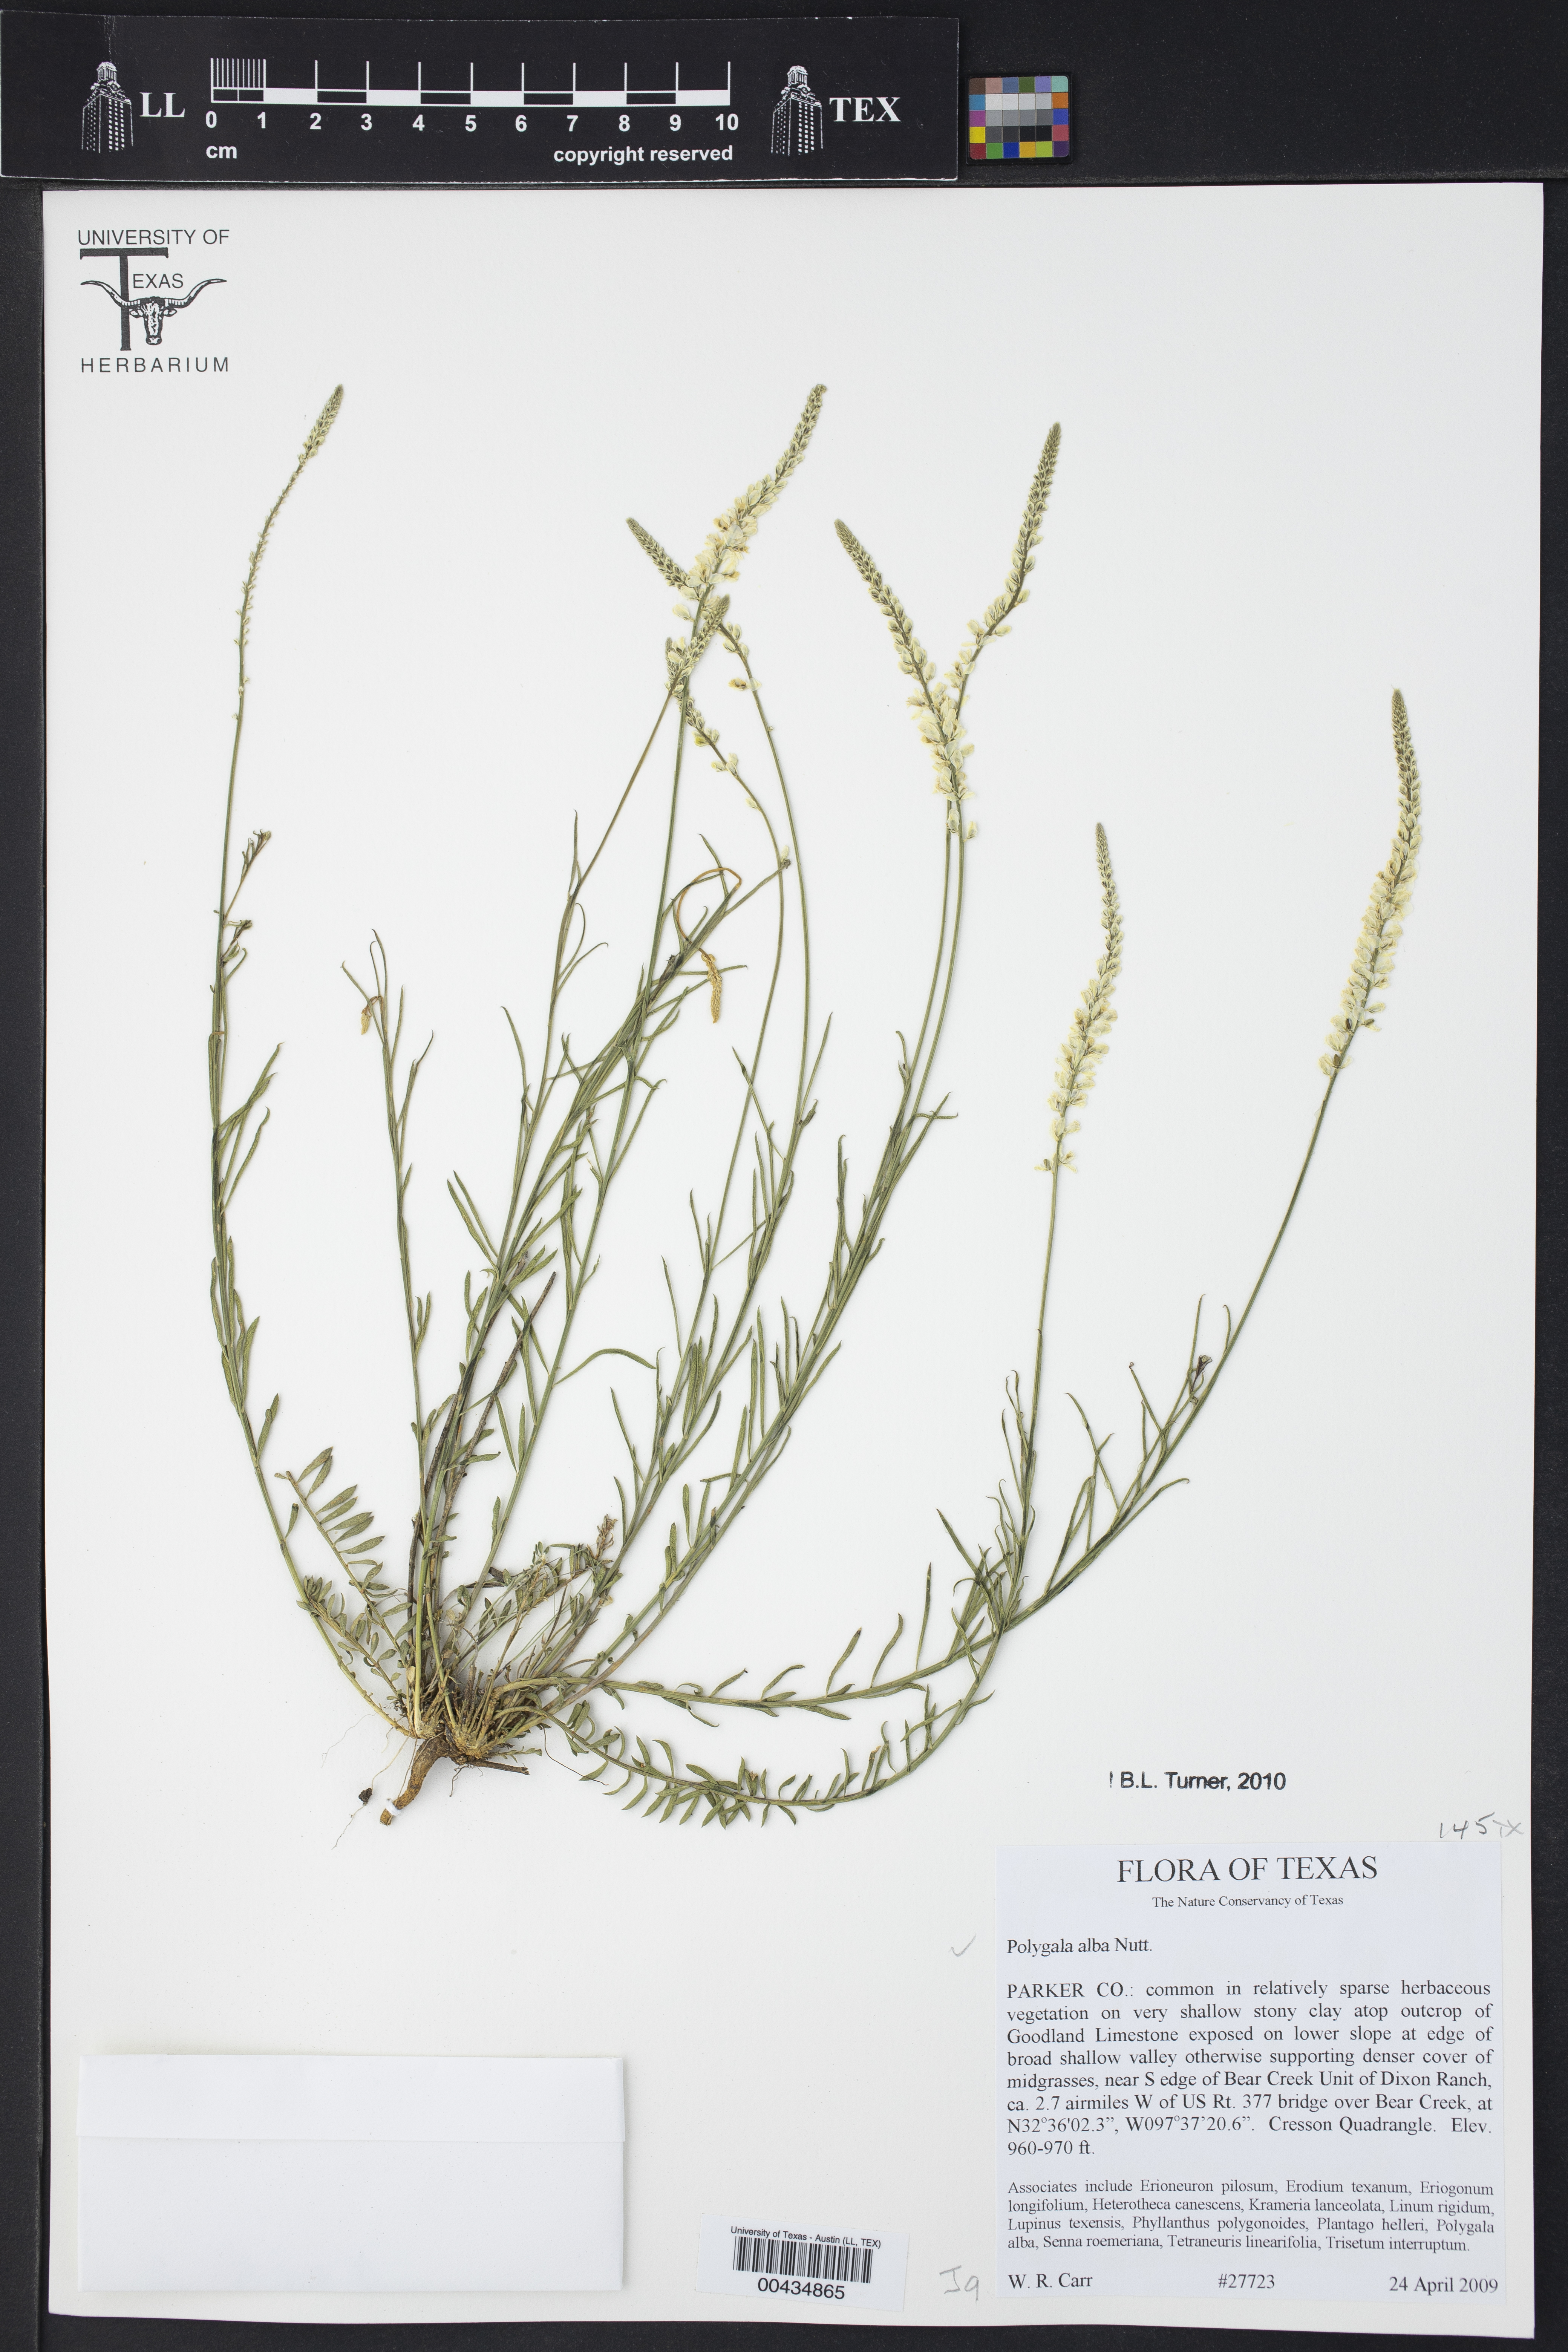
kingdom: Plantae
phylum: Tracheophyta
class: Magnoliopsida
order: Fabales
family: Polygalaceae
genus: Polygala
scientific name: Polygala alba
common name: White milkwort
